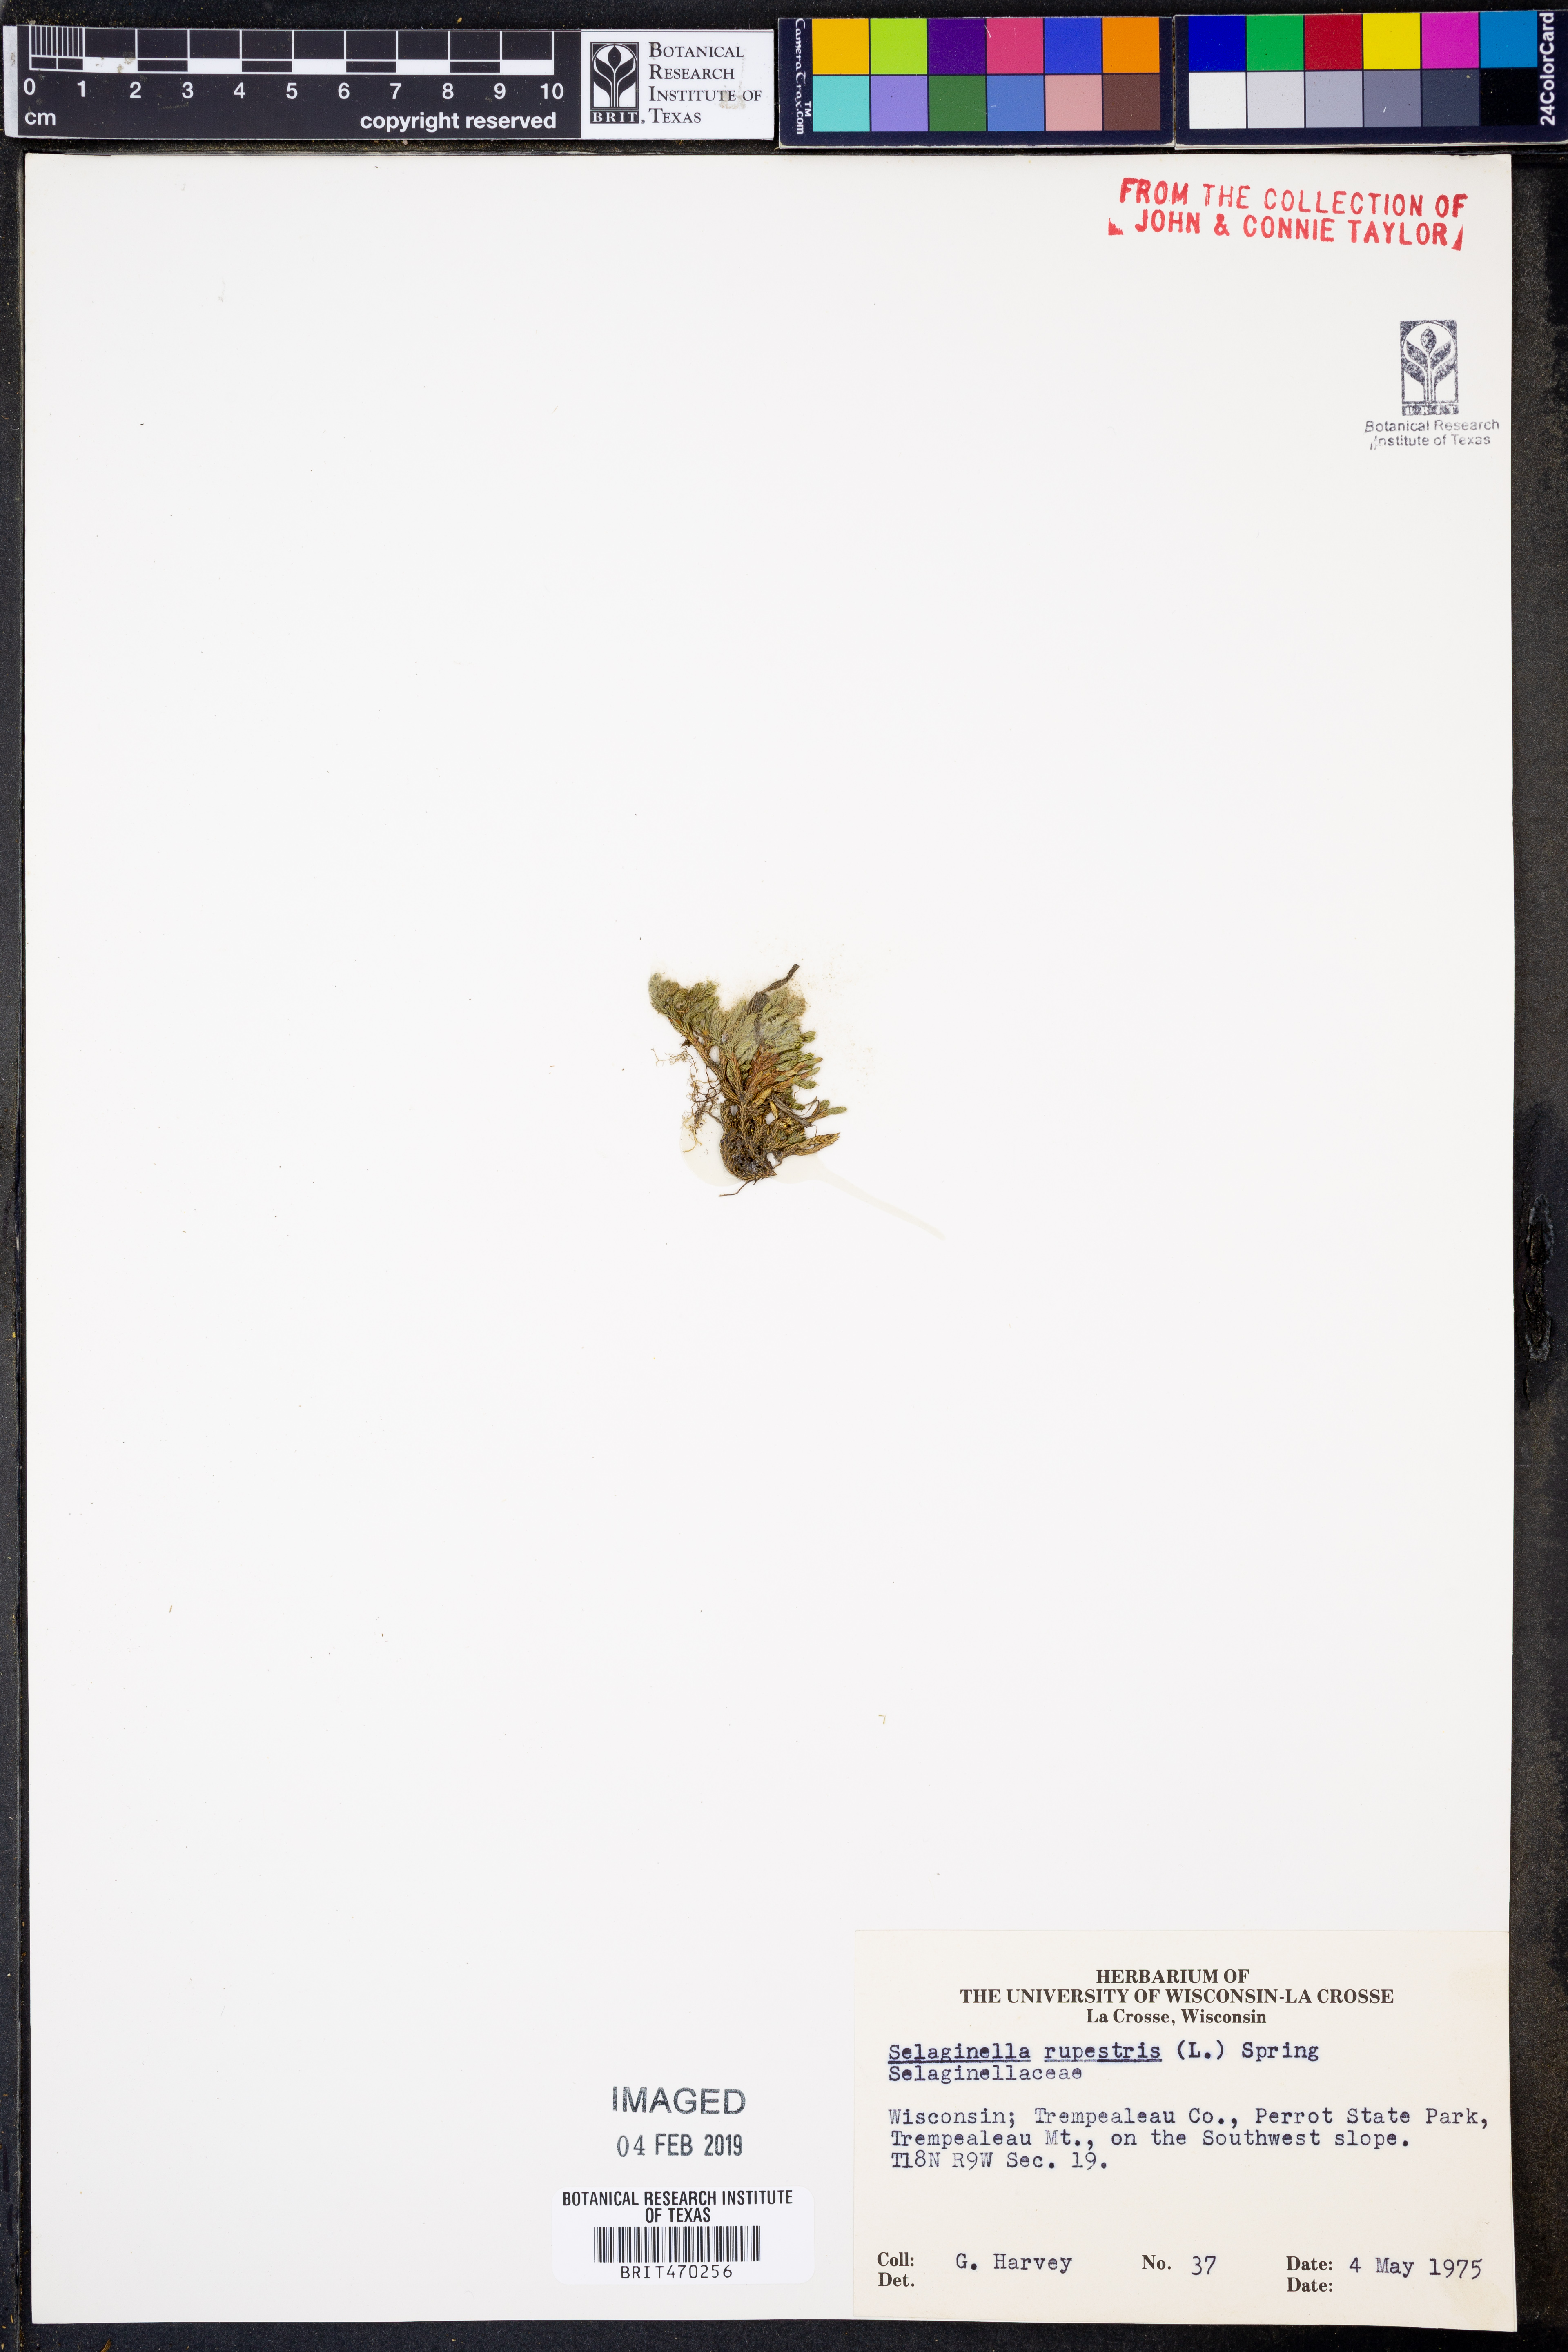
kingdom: Plantae
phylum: Tracheophyta
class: Lycopodiopsida
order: Selaginellales
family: Selaginellaceae
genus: Selaginella
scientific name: Selaginella rupestris
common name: Dwarf spikemoss
